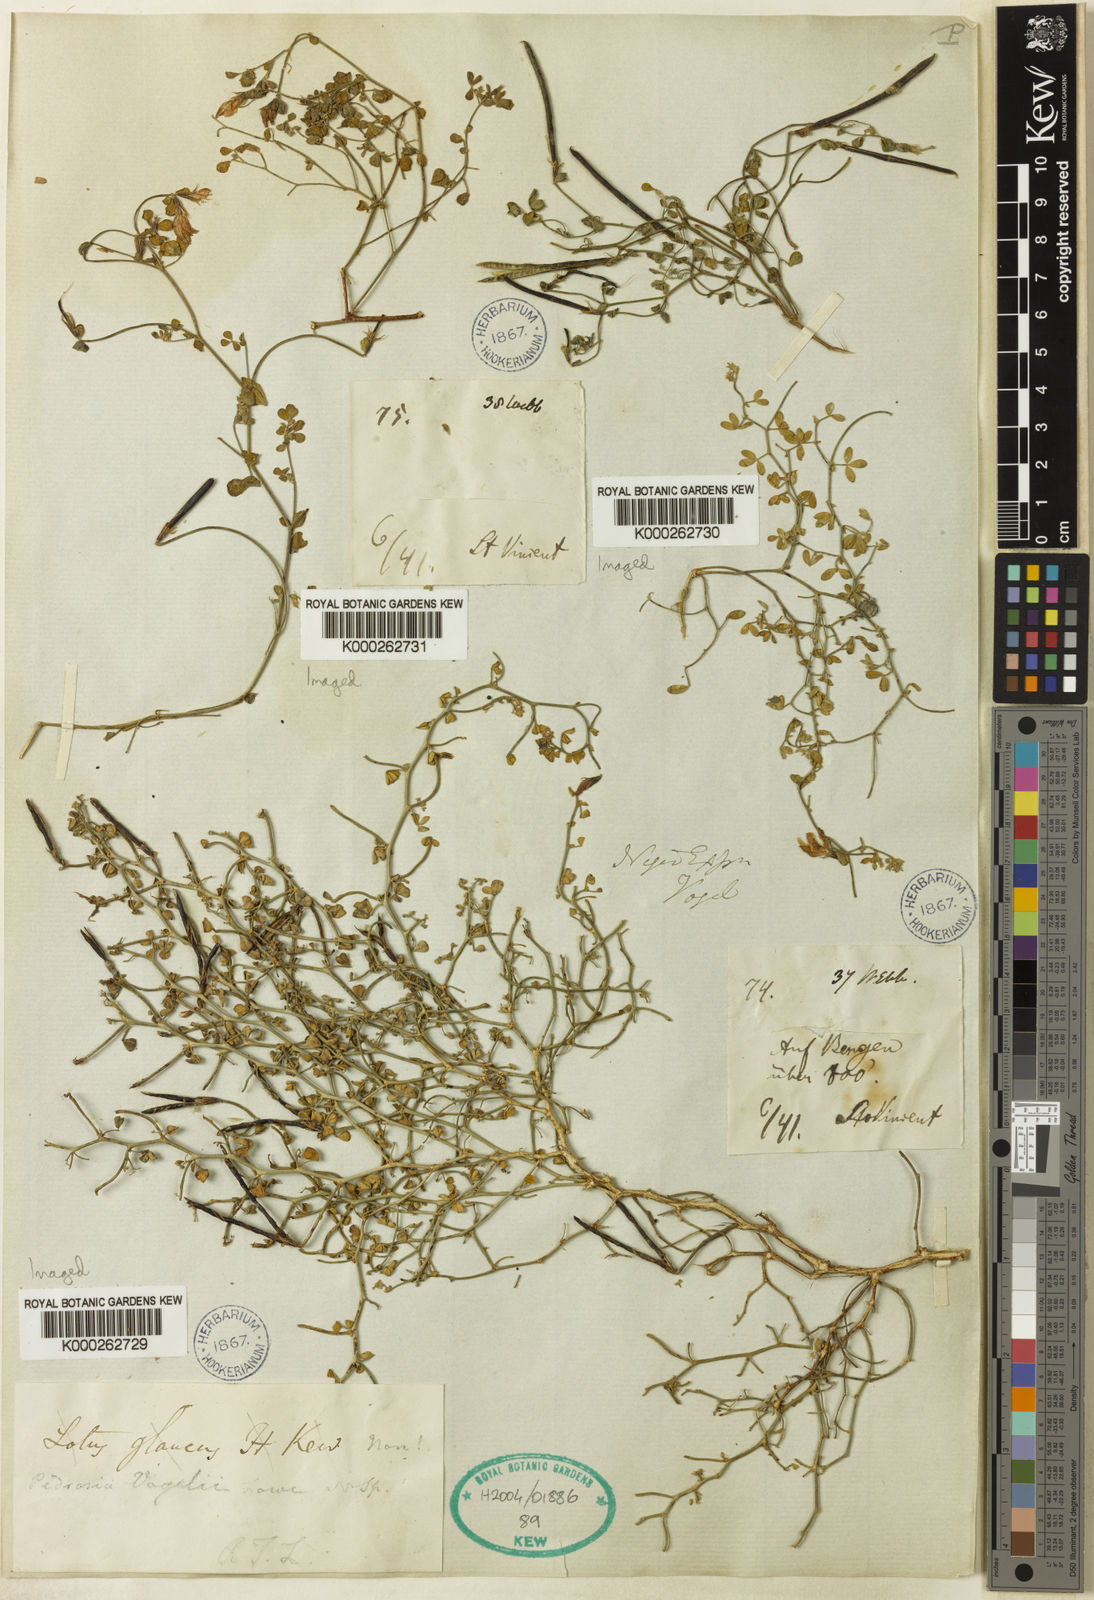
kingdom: Plantae
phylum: Tracheophyta
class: Magnoliopsida
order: Fabales
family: Fabaceae
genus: Lotus
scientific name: Lotus
